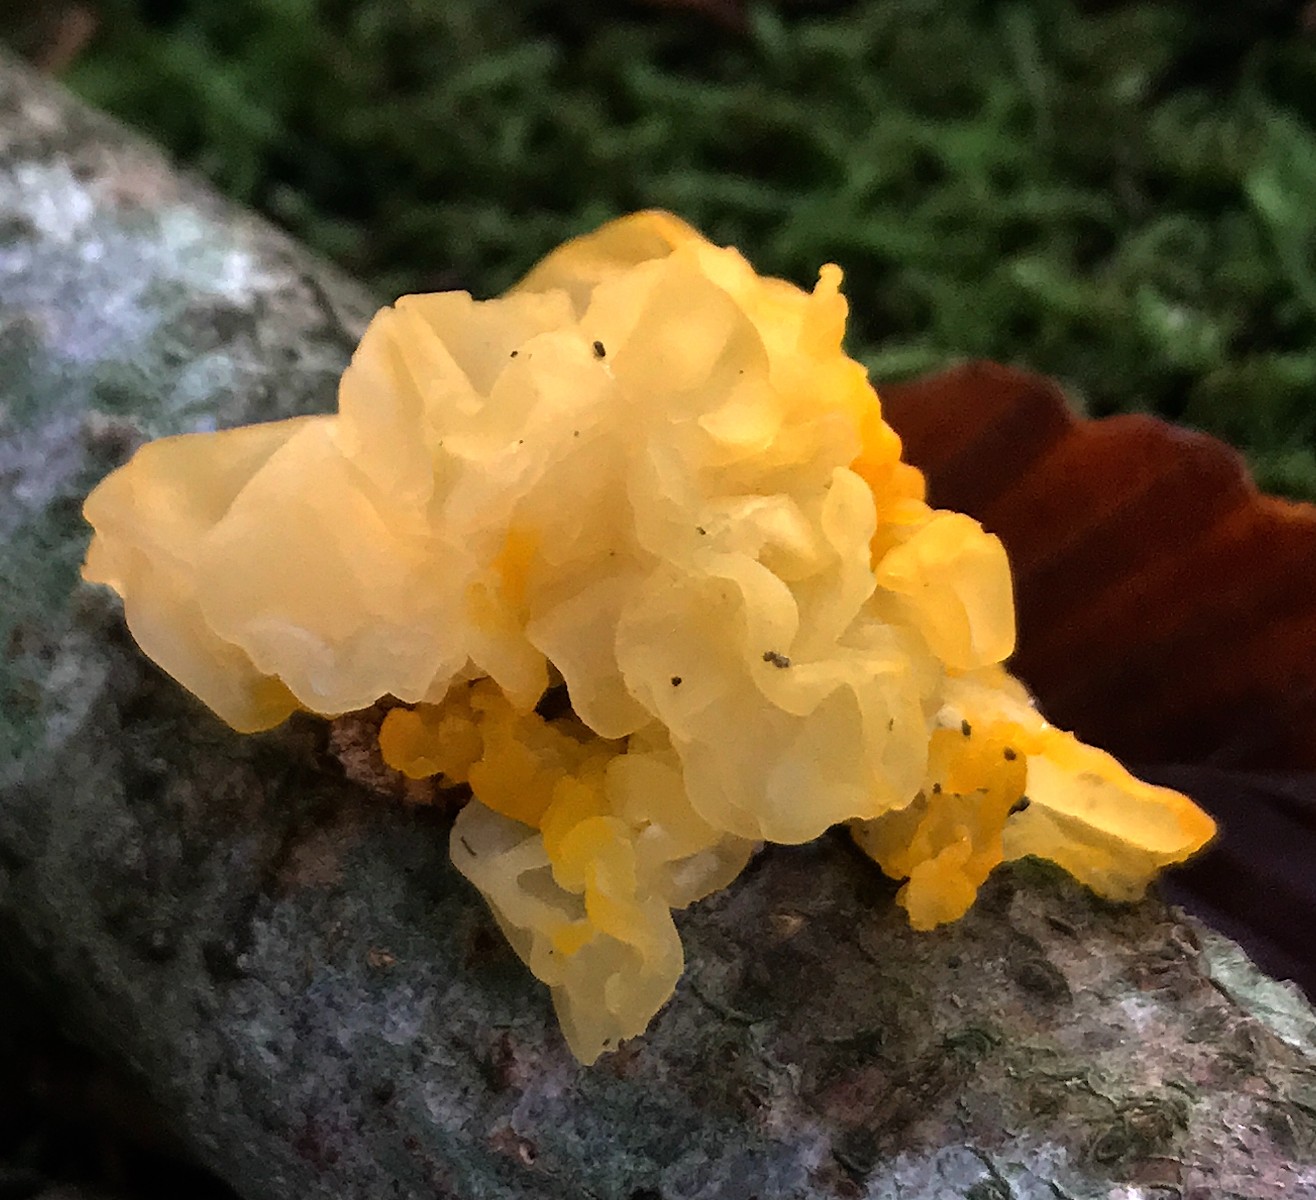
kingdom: Fungi
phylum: Basidiomycota
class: Tremellomycetes
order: Tremellales
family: Tremellaceae
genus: Tremella
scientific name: Tremella mesenterica
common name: gul bævresvamp
